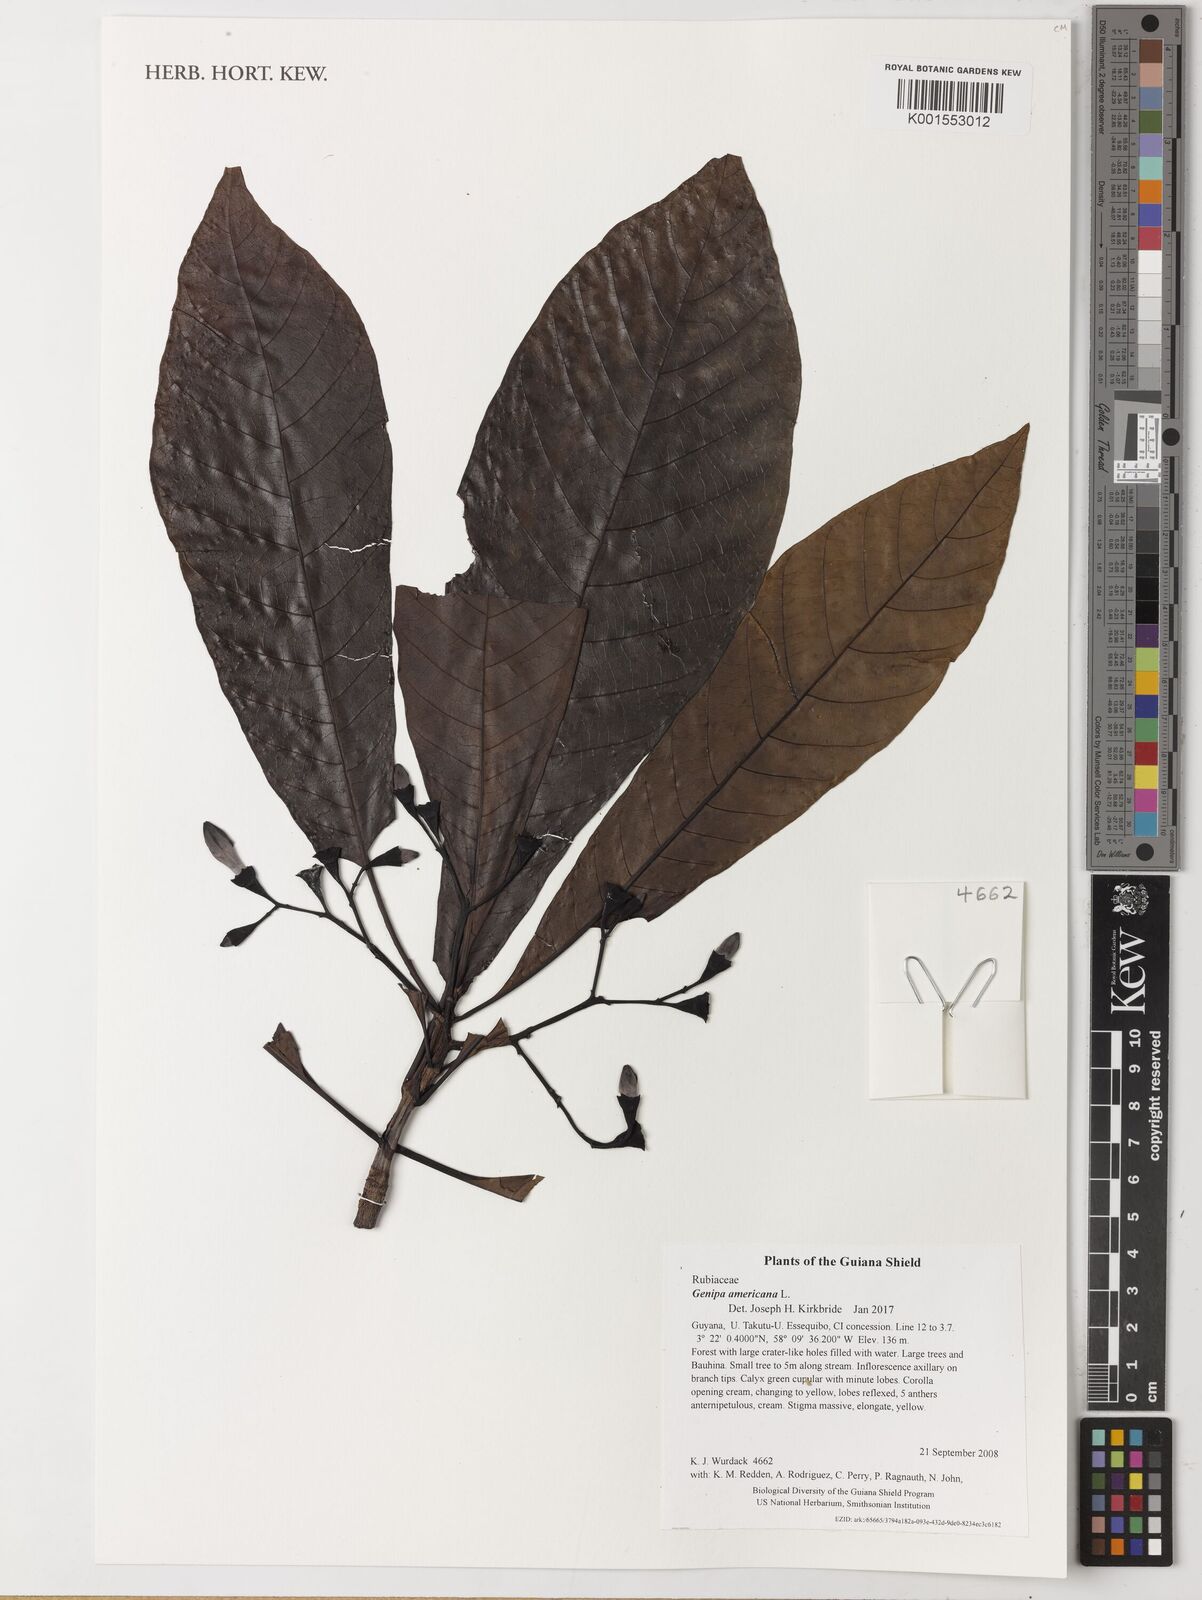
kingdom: Plantae
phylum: Tracheophyta
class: Magnoliopsida
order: Gentianales
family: Rubiaceae
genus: Genipa
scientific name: Genipa americana
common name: Genipap
